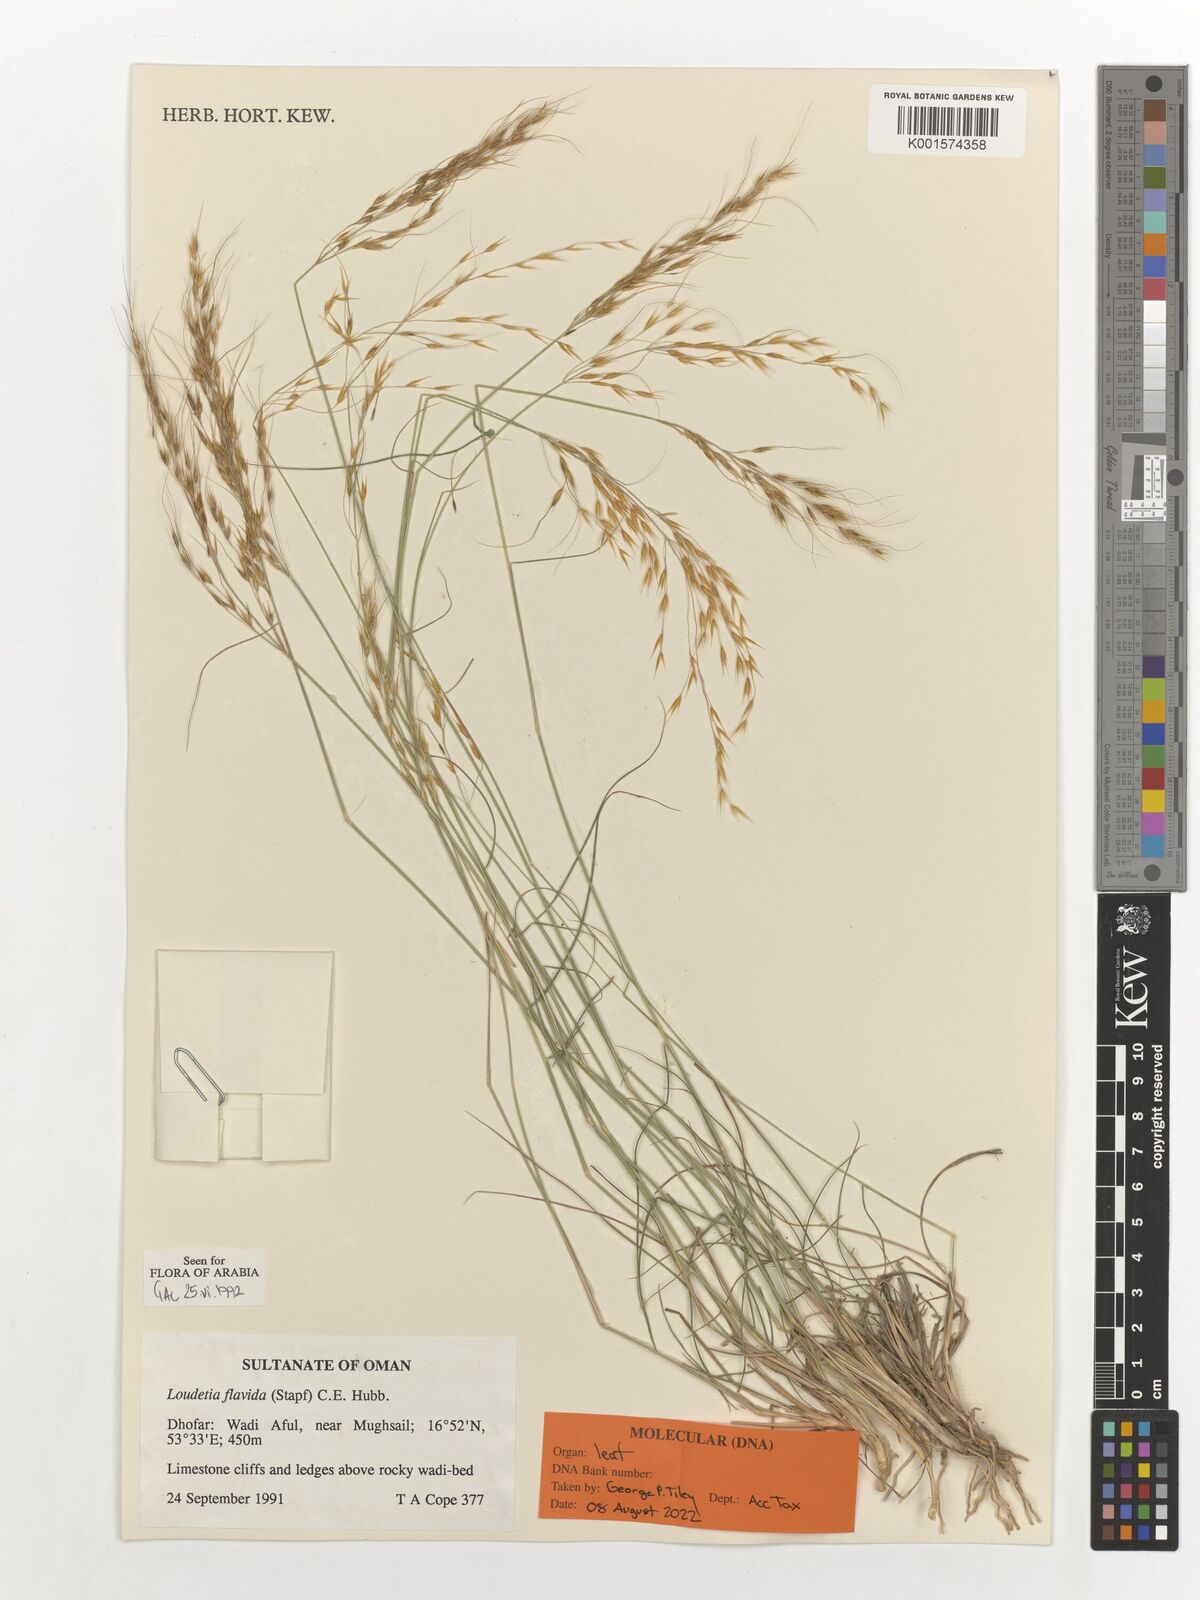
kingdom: Plantae
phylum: Tracheophyta
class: Liliopsida
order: Poales
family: Poaceae
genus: Loudetia
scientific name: Loudetia flavida
